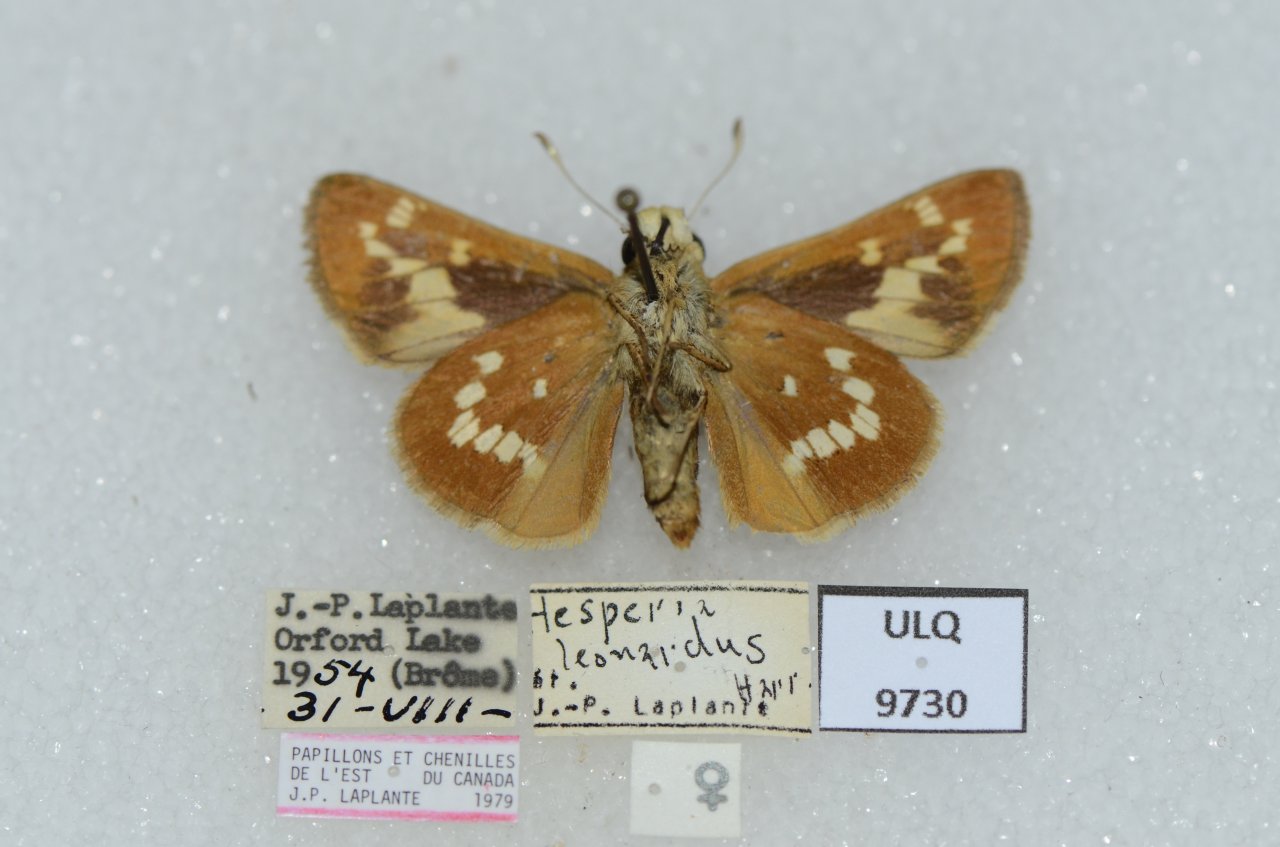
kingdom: Animalia
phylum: Arthropoda
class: Insecta
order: Lepidoptera
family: Hesperiidae
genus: Hesperia
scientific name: Hesperia leonardus
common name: Leonard's Skipper
